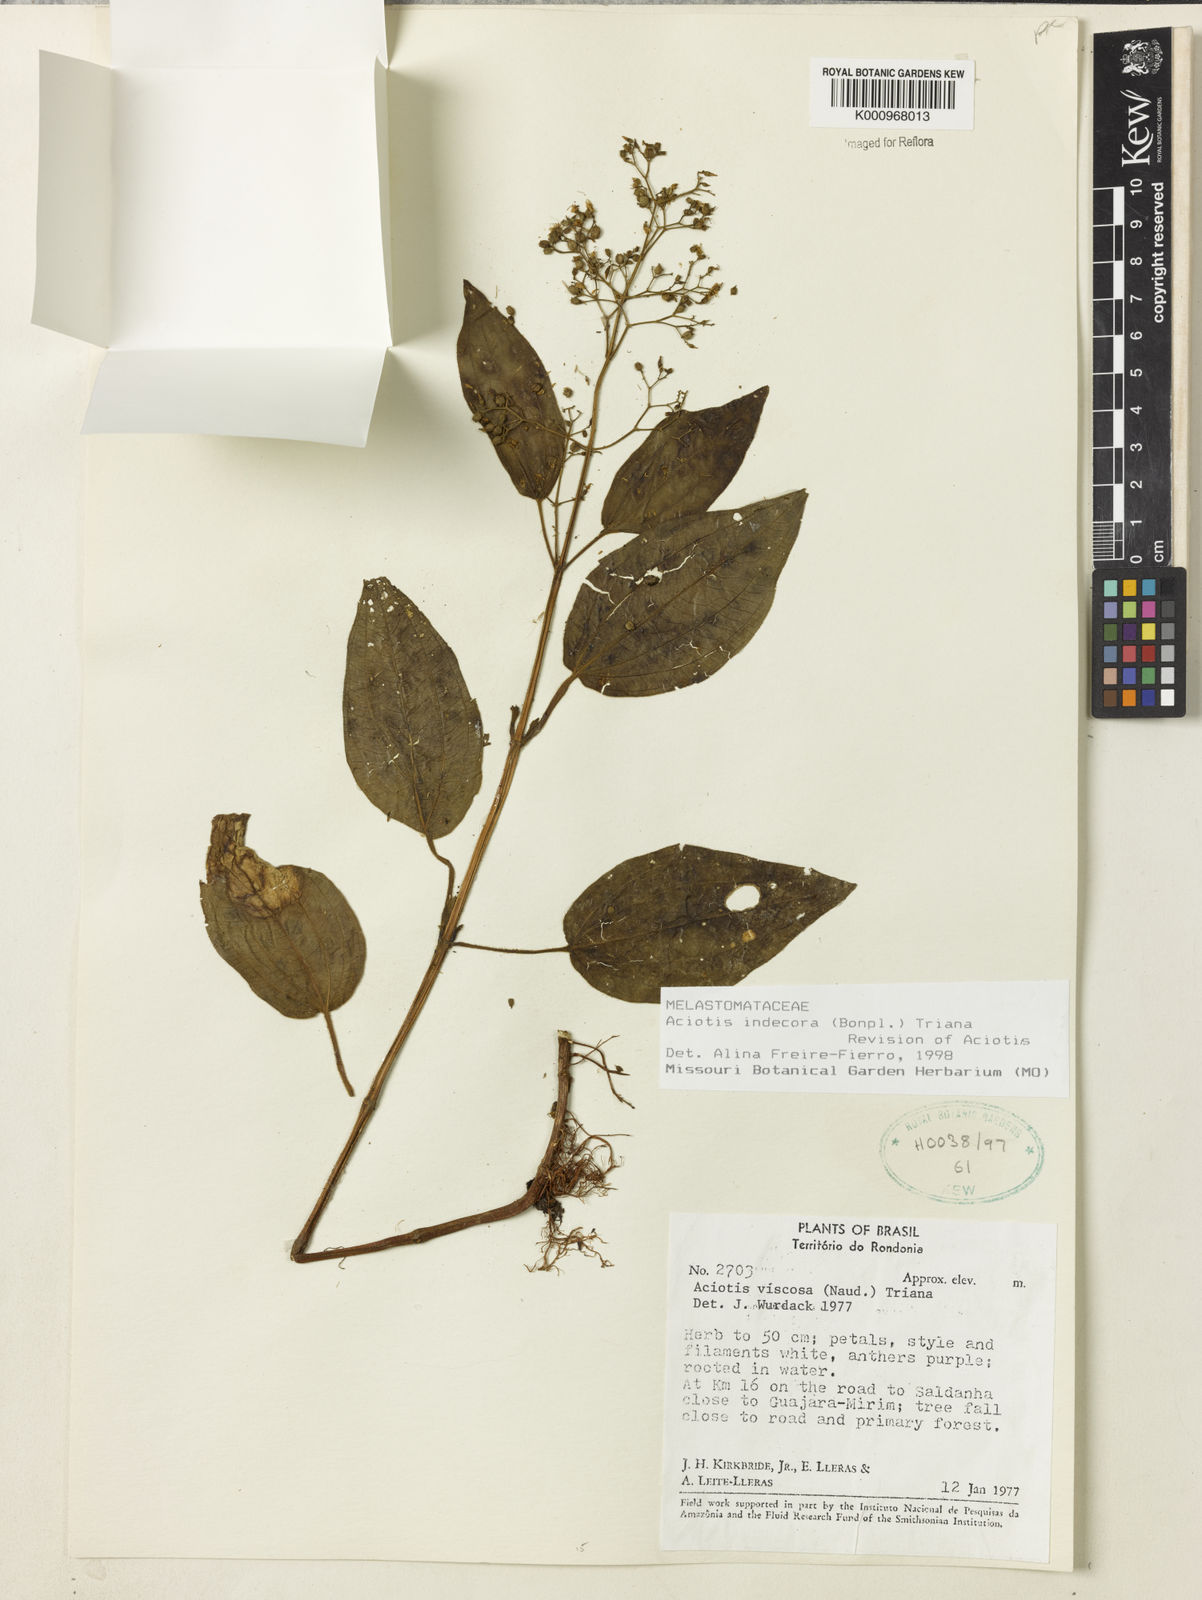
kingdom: Plantae
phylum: Tracheophyta
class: Magnoliopsida
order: Myrtales
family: Melastomataceae
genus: Aciotis
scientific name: Aciotis indecora
